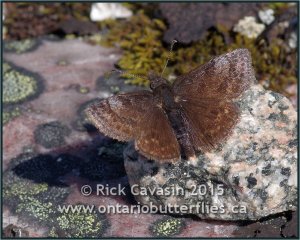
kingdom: Animalia
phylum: Arthropoda
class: Insecta
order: Lepidoptera
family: Hesperiidae
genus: Erynnis
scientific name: Erynnis icelus
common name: Dreamy Duskywing
